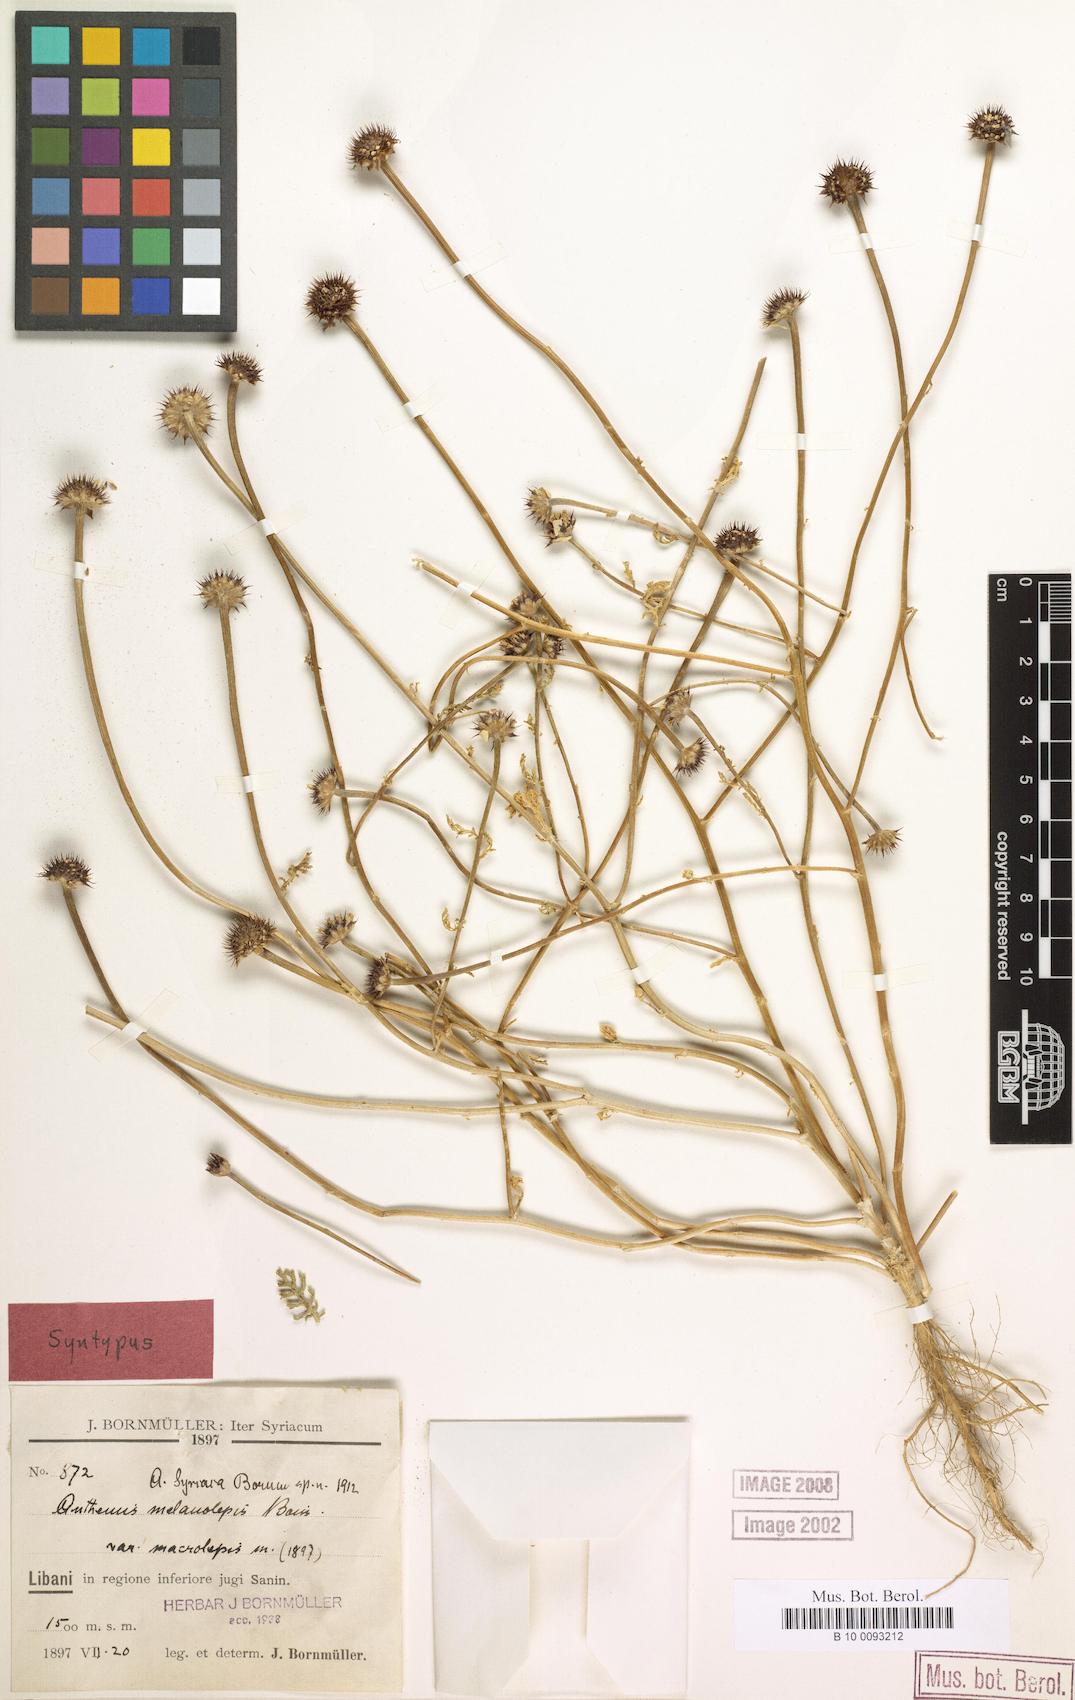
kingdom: Plantae
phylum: Tracheophyta
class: Magnoliopsida
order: Asterales
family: Asteraceae
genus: Cota
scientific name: Cota palaestina
